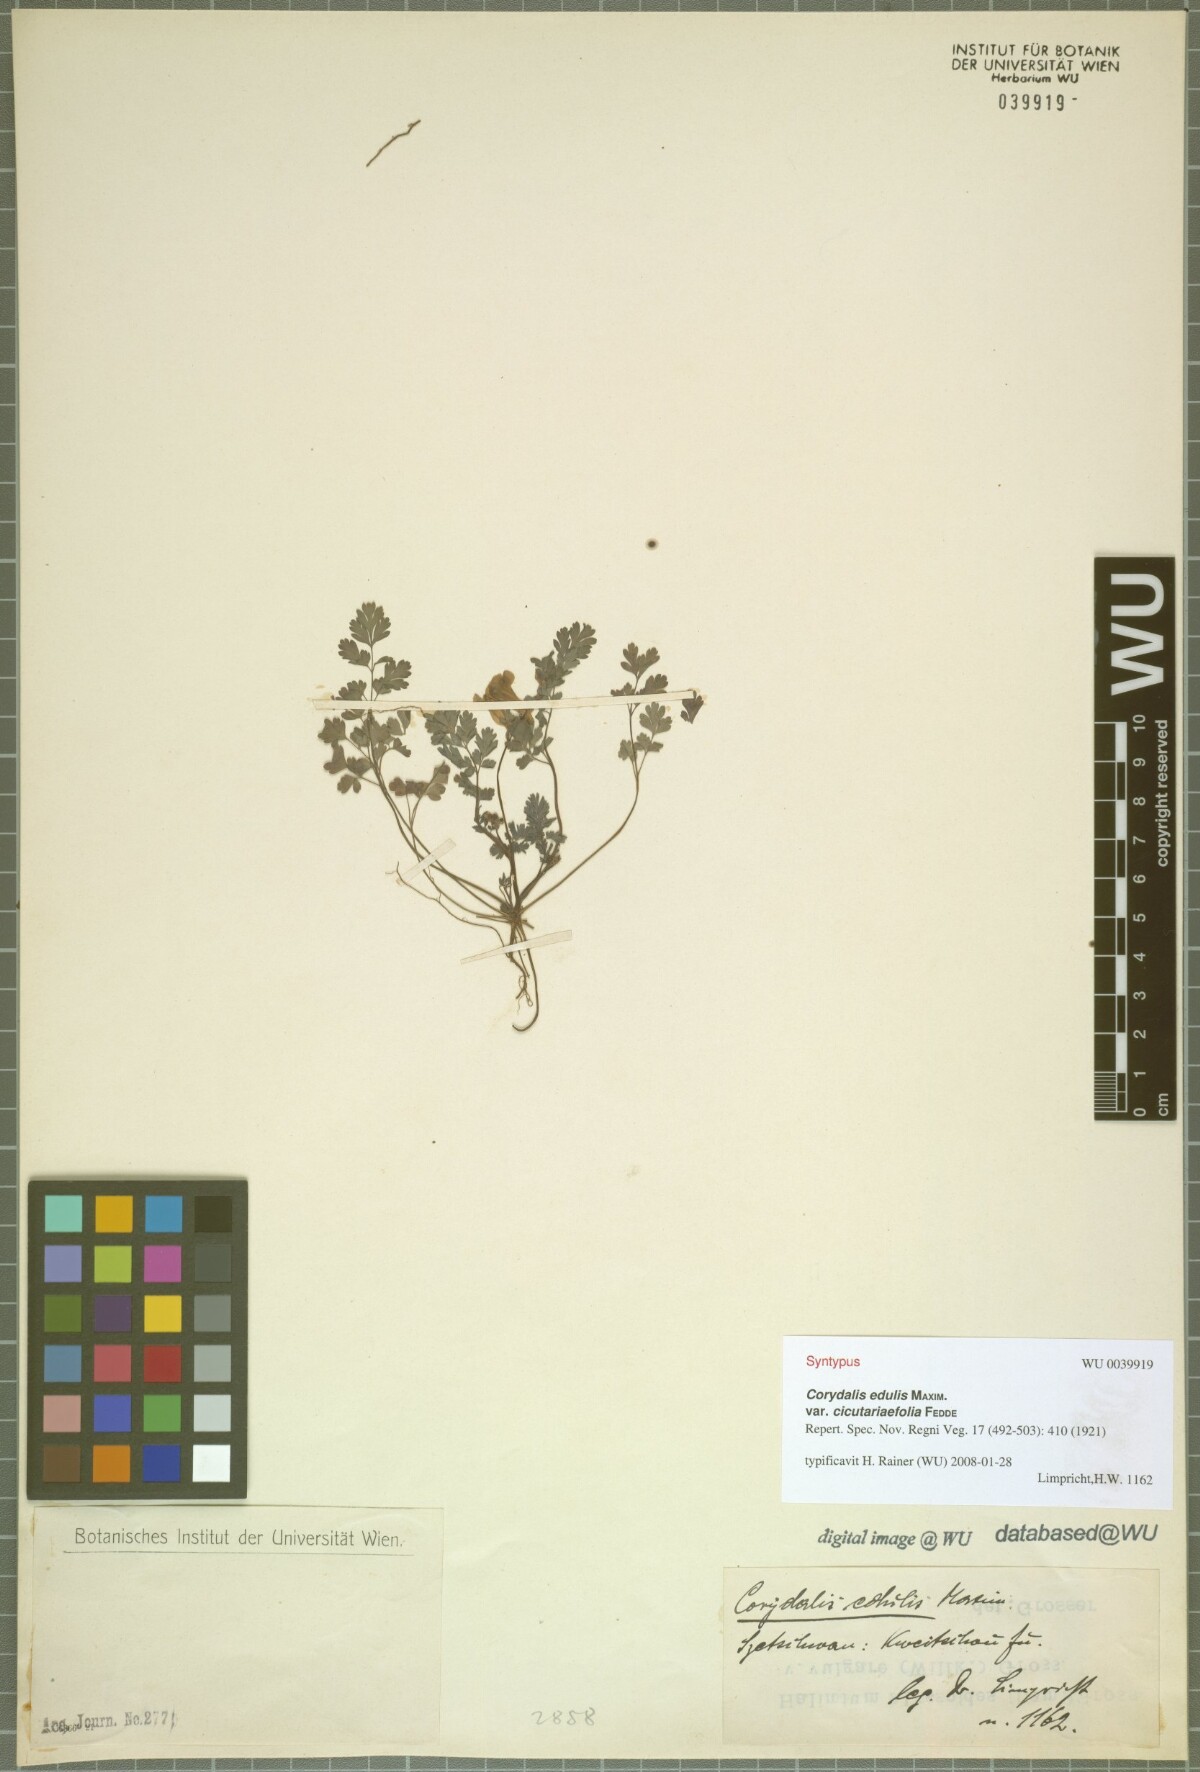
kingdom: Plantae
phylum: Tracheophyta
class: Magnoliopsida
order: Ranunculales
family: Papaveraceae
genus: Corydalis
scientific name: Corydalis racemosa
